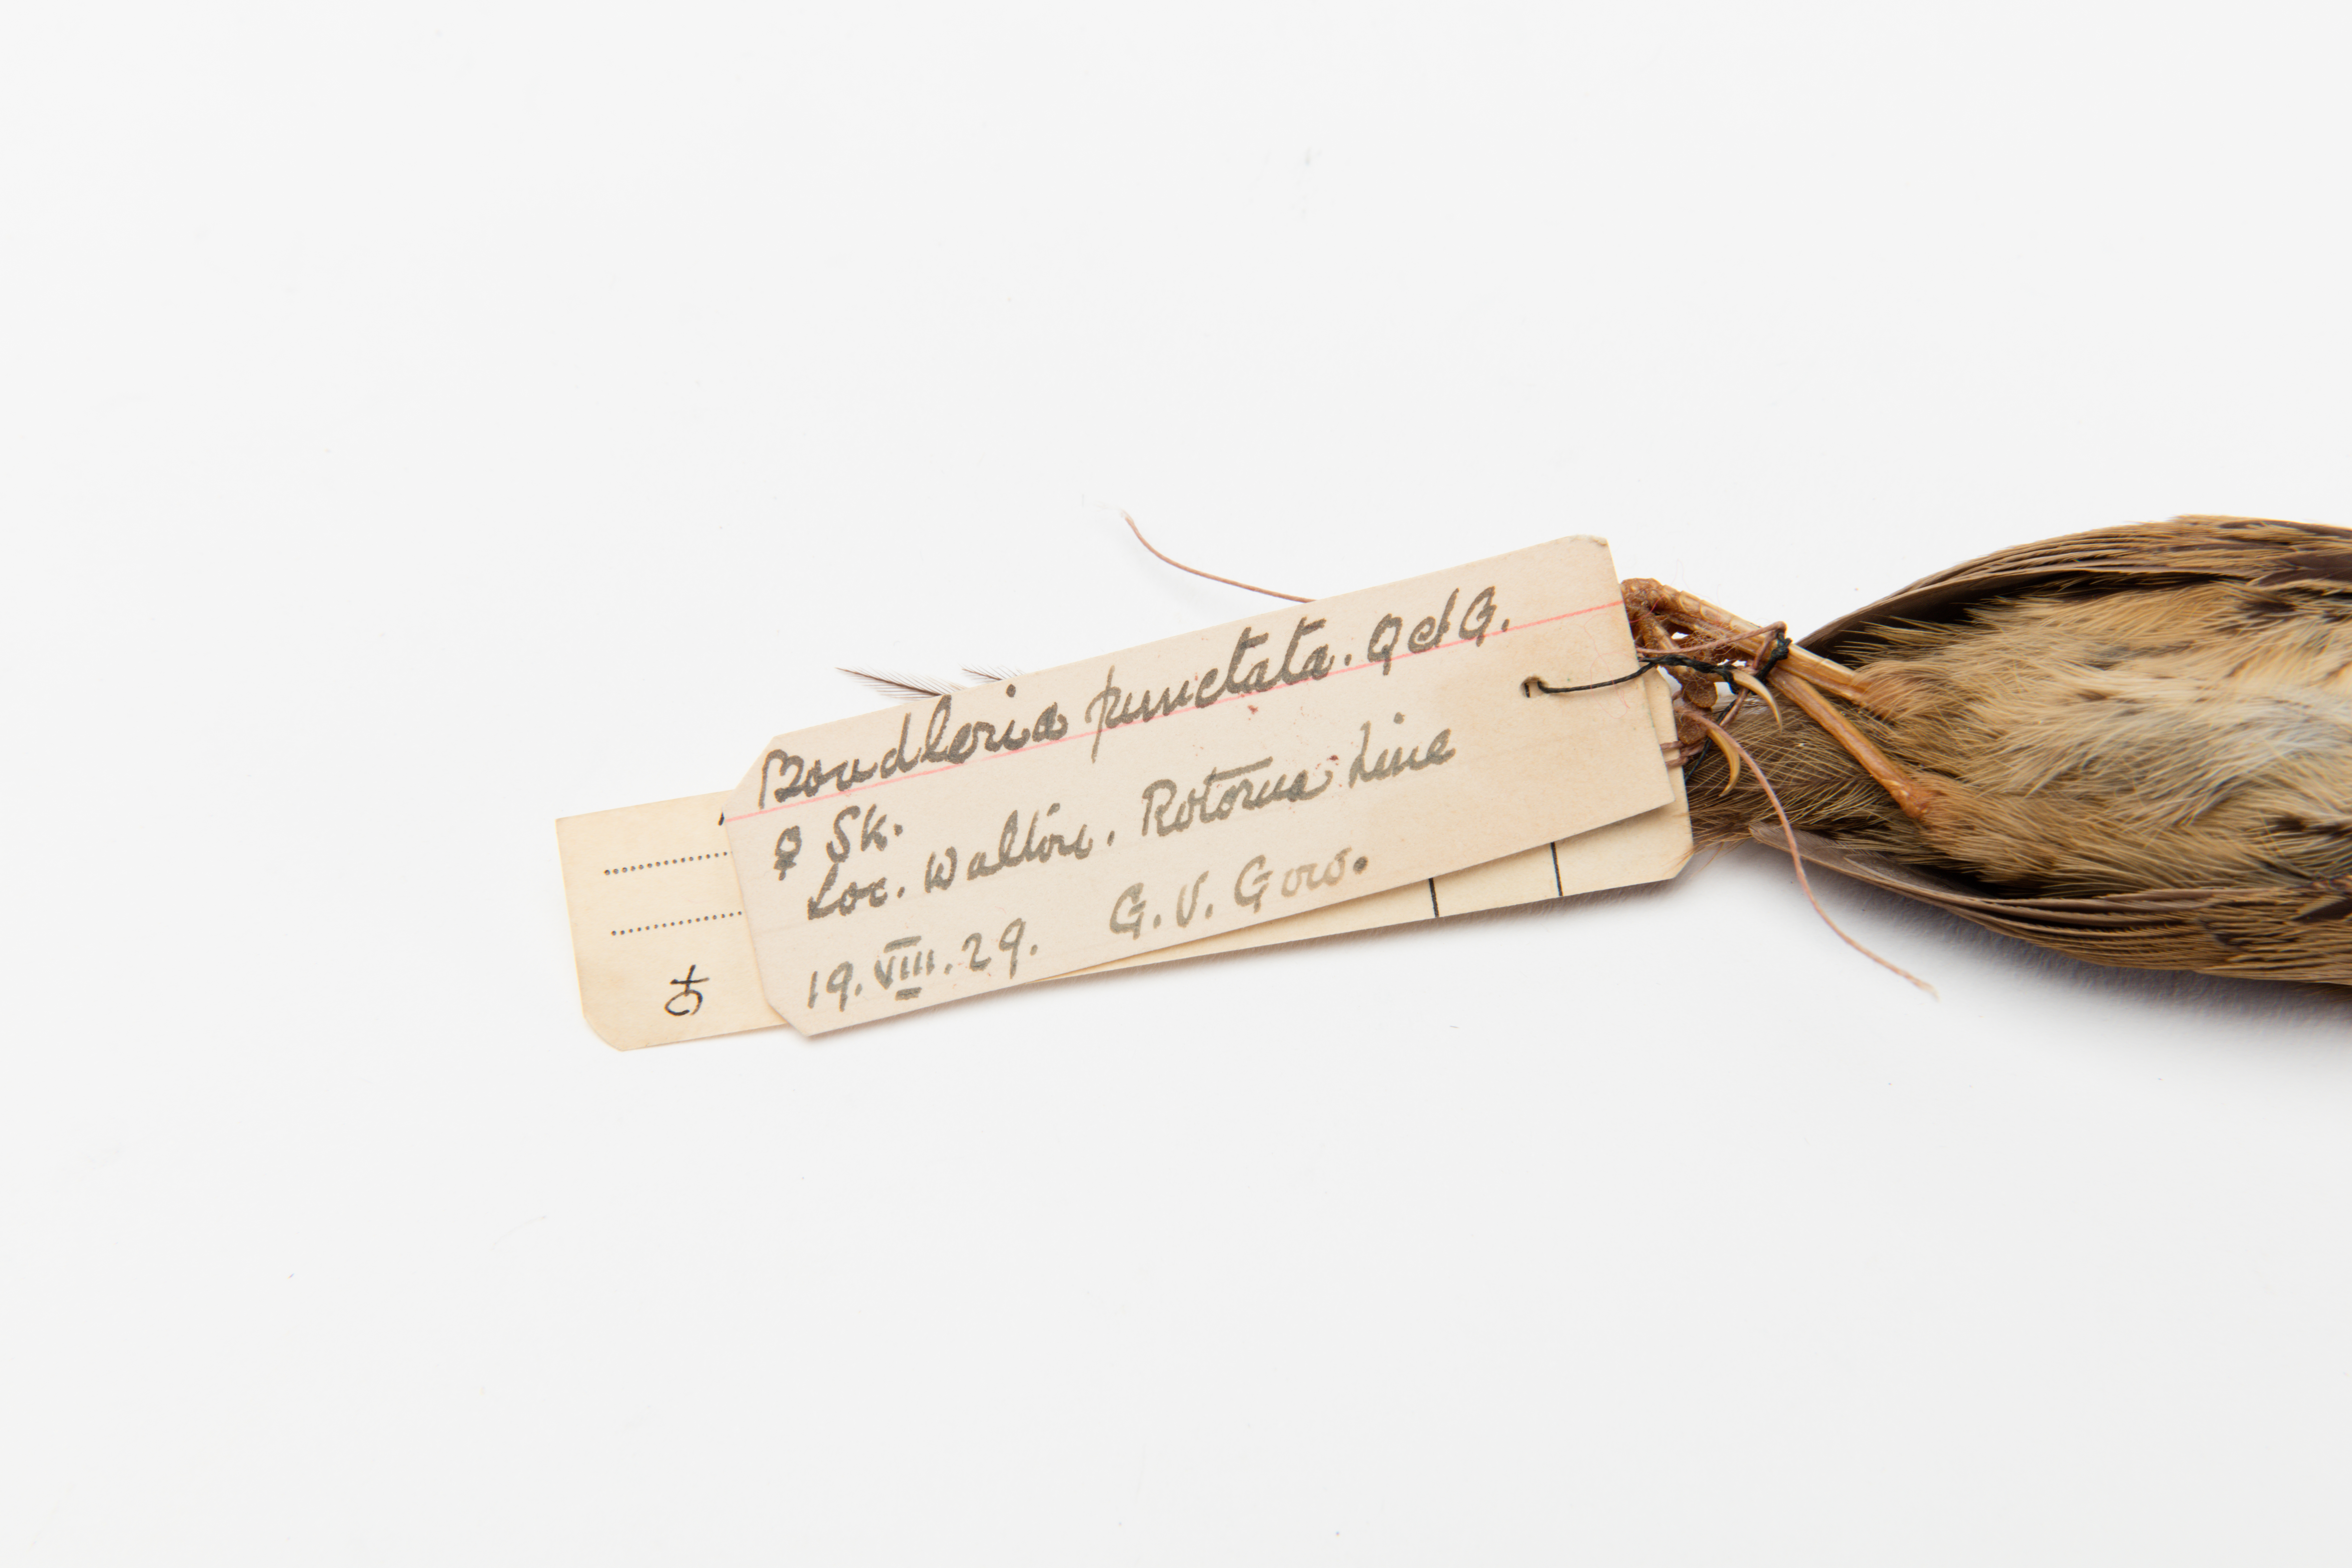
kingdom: Animalia
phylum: Chordata
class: Aves
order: Passeriformes
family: Locustellidae
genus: Megalurus
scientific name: Megalurus punctatus
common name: New zealand fernbird
